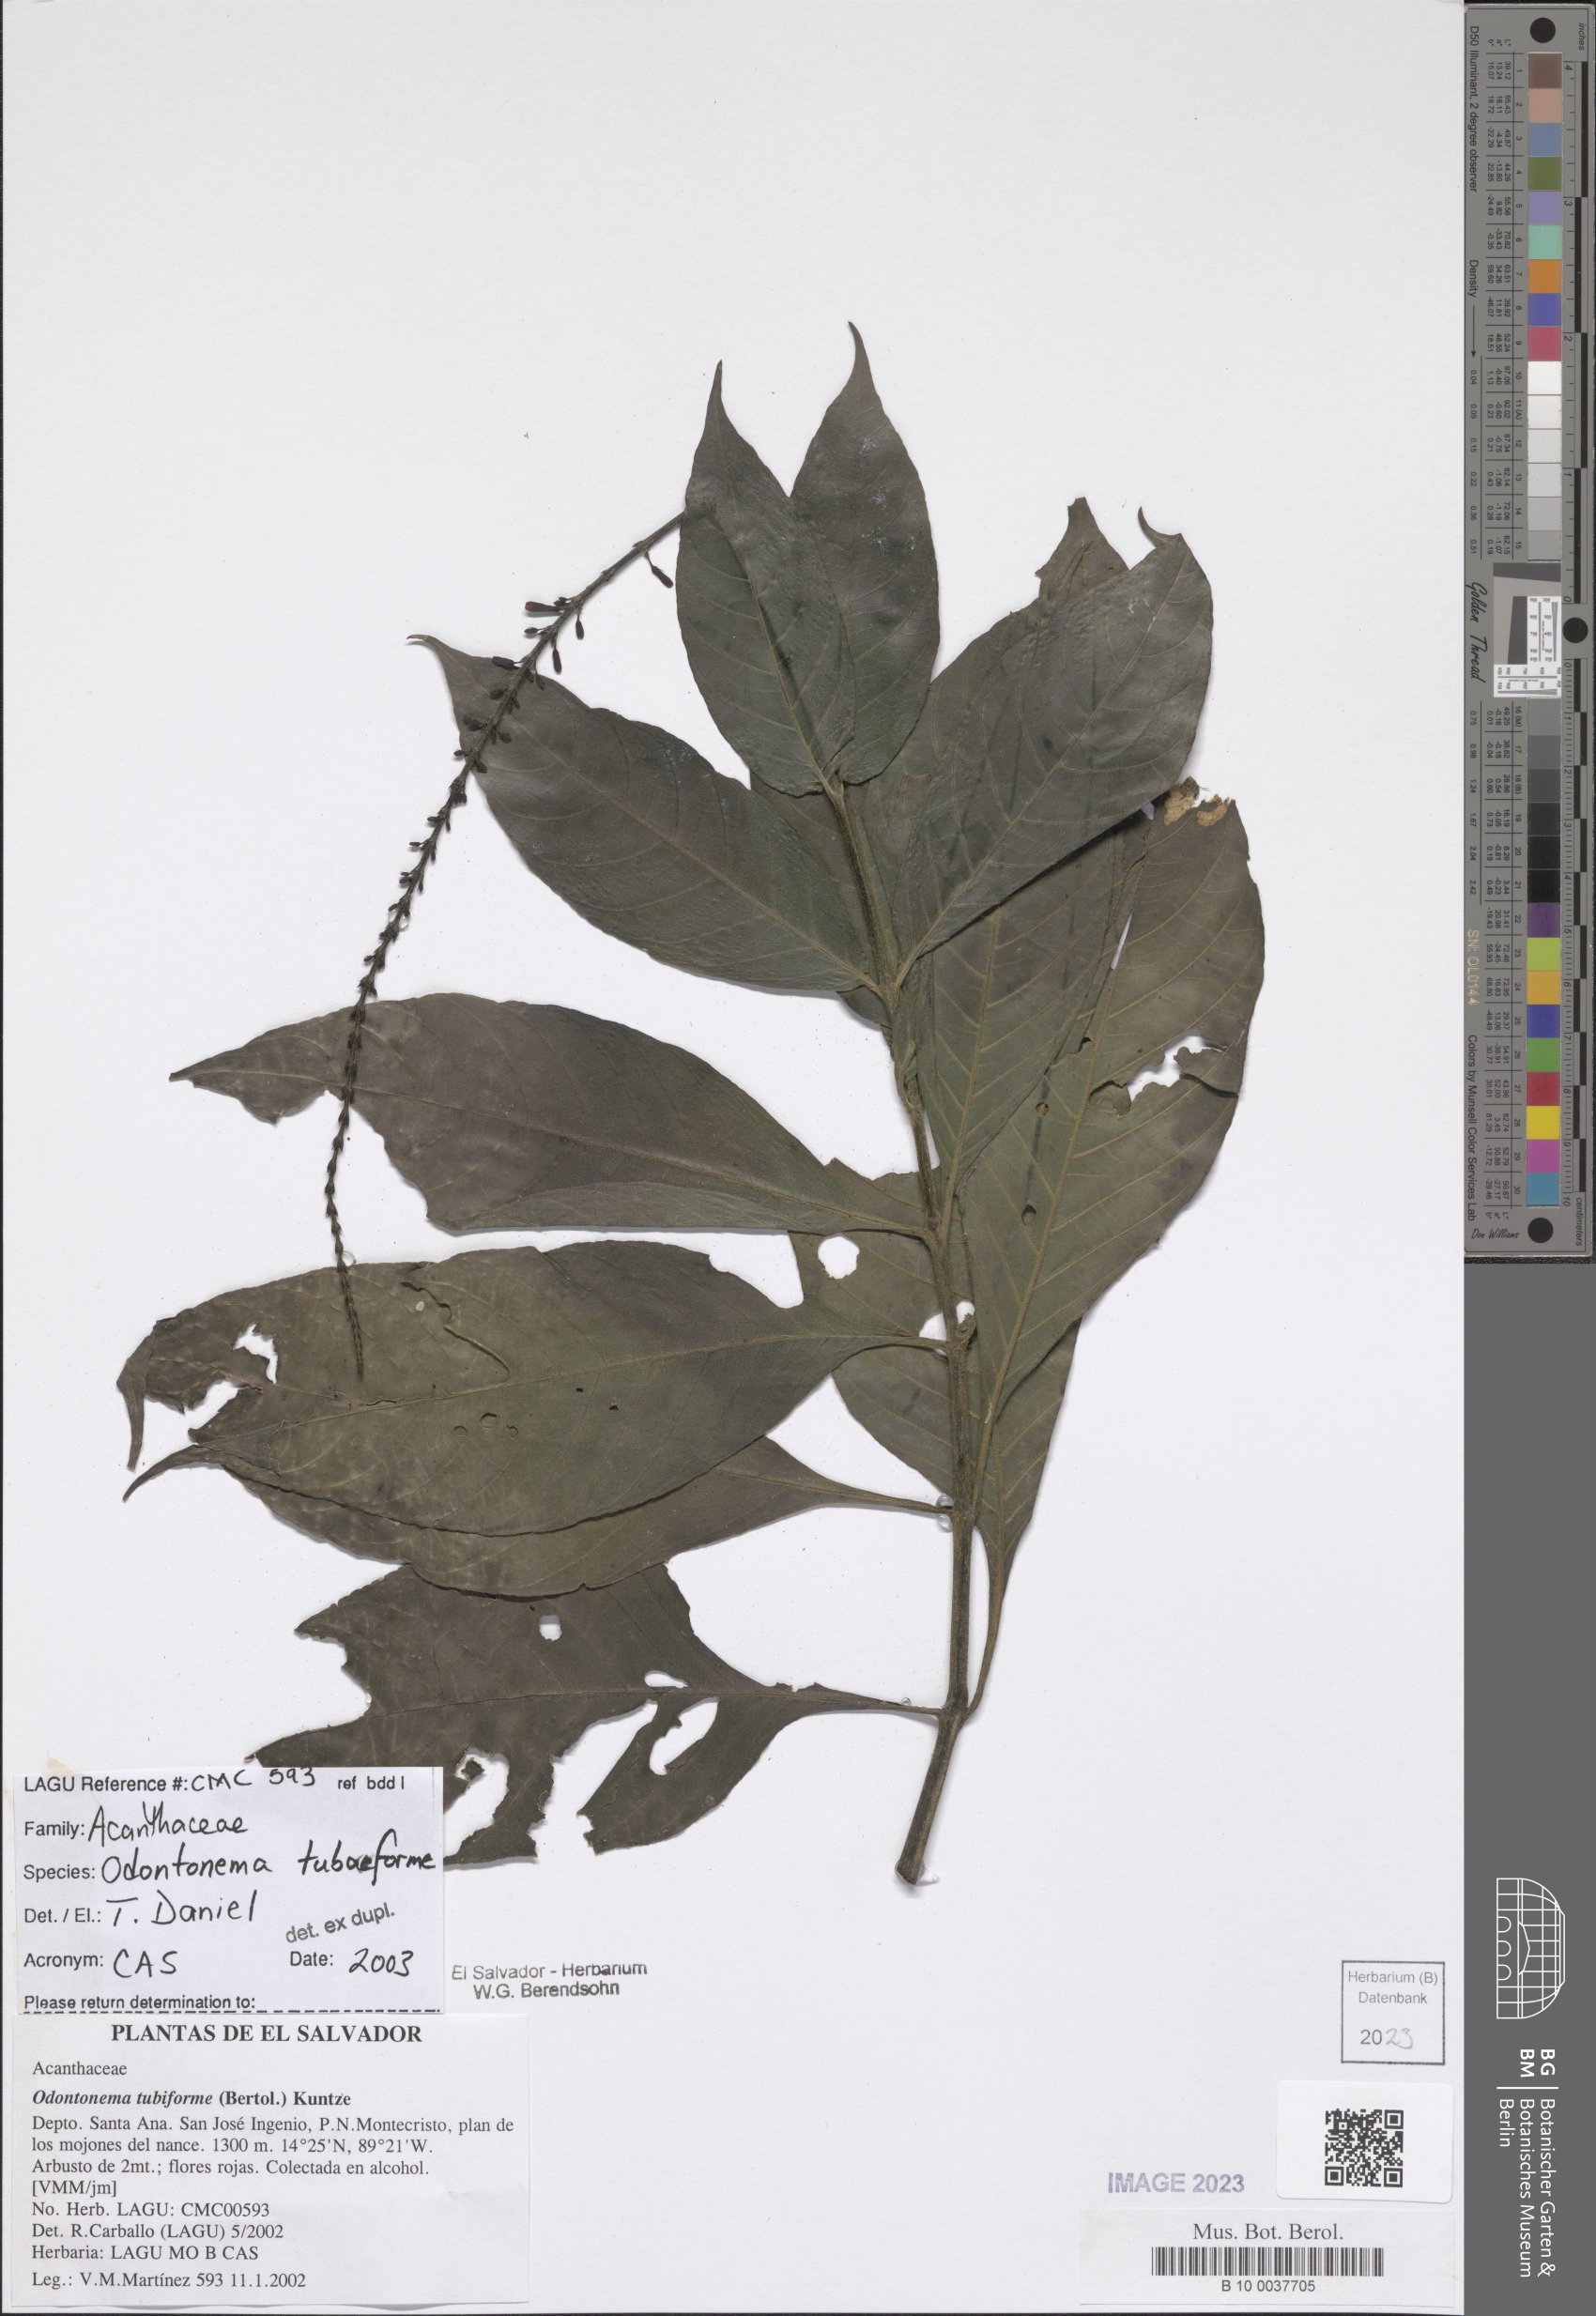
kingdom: Plantae
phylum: Tracheophyta
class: Magnoliopsida
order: Lamiales
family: Acanthaceae
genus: Odontonema
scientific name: Odontonema tubaeforme
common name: Firespike
